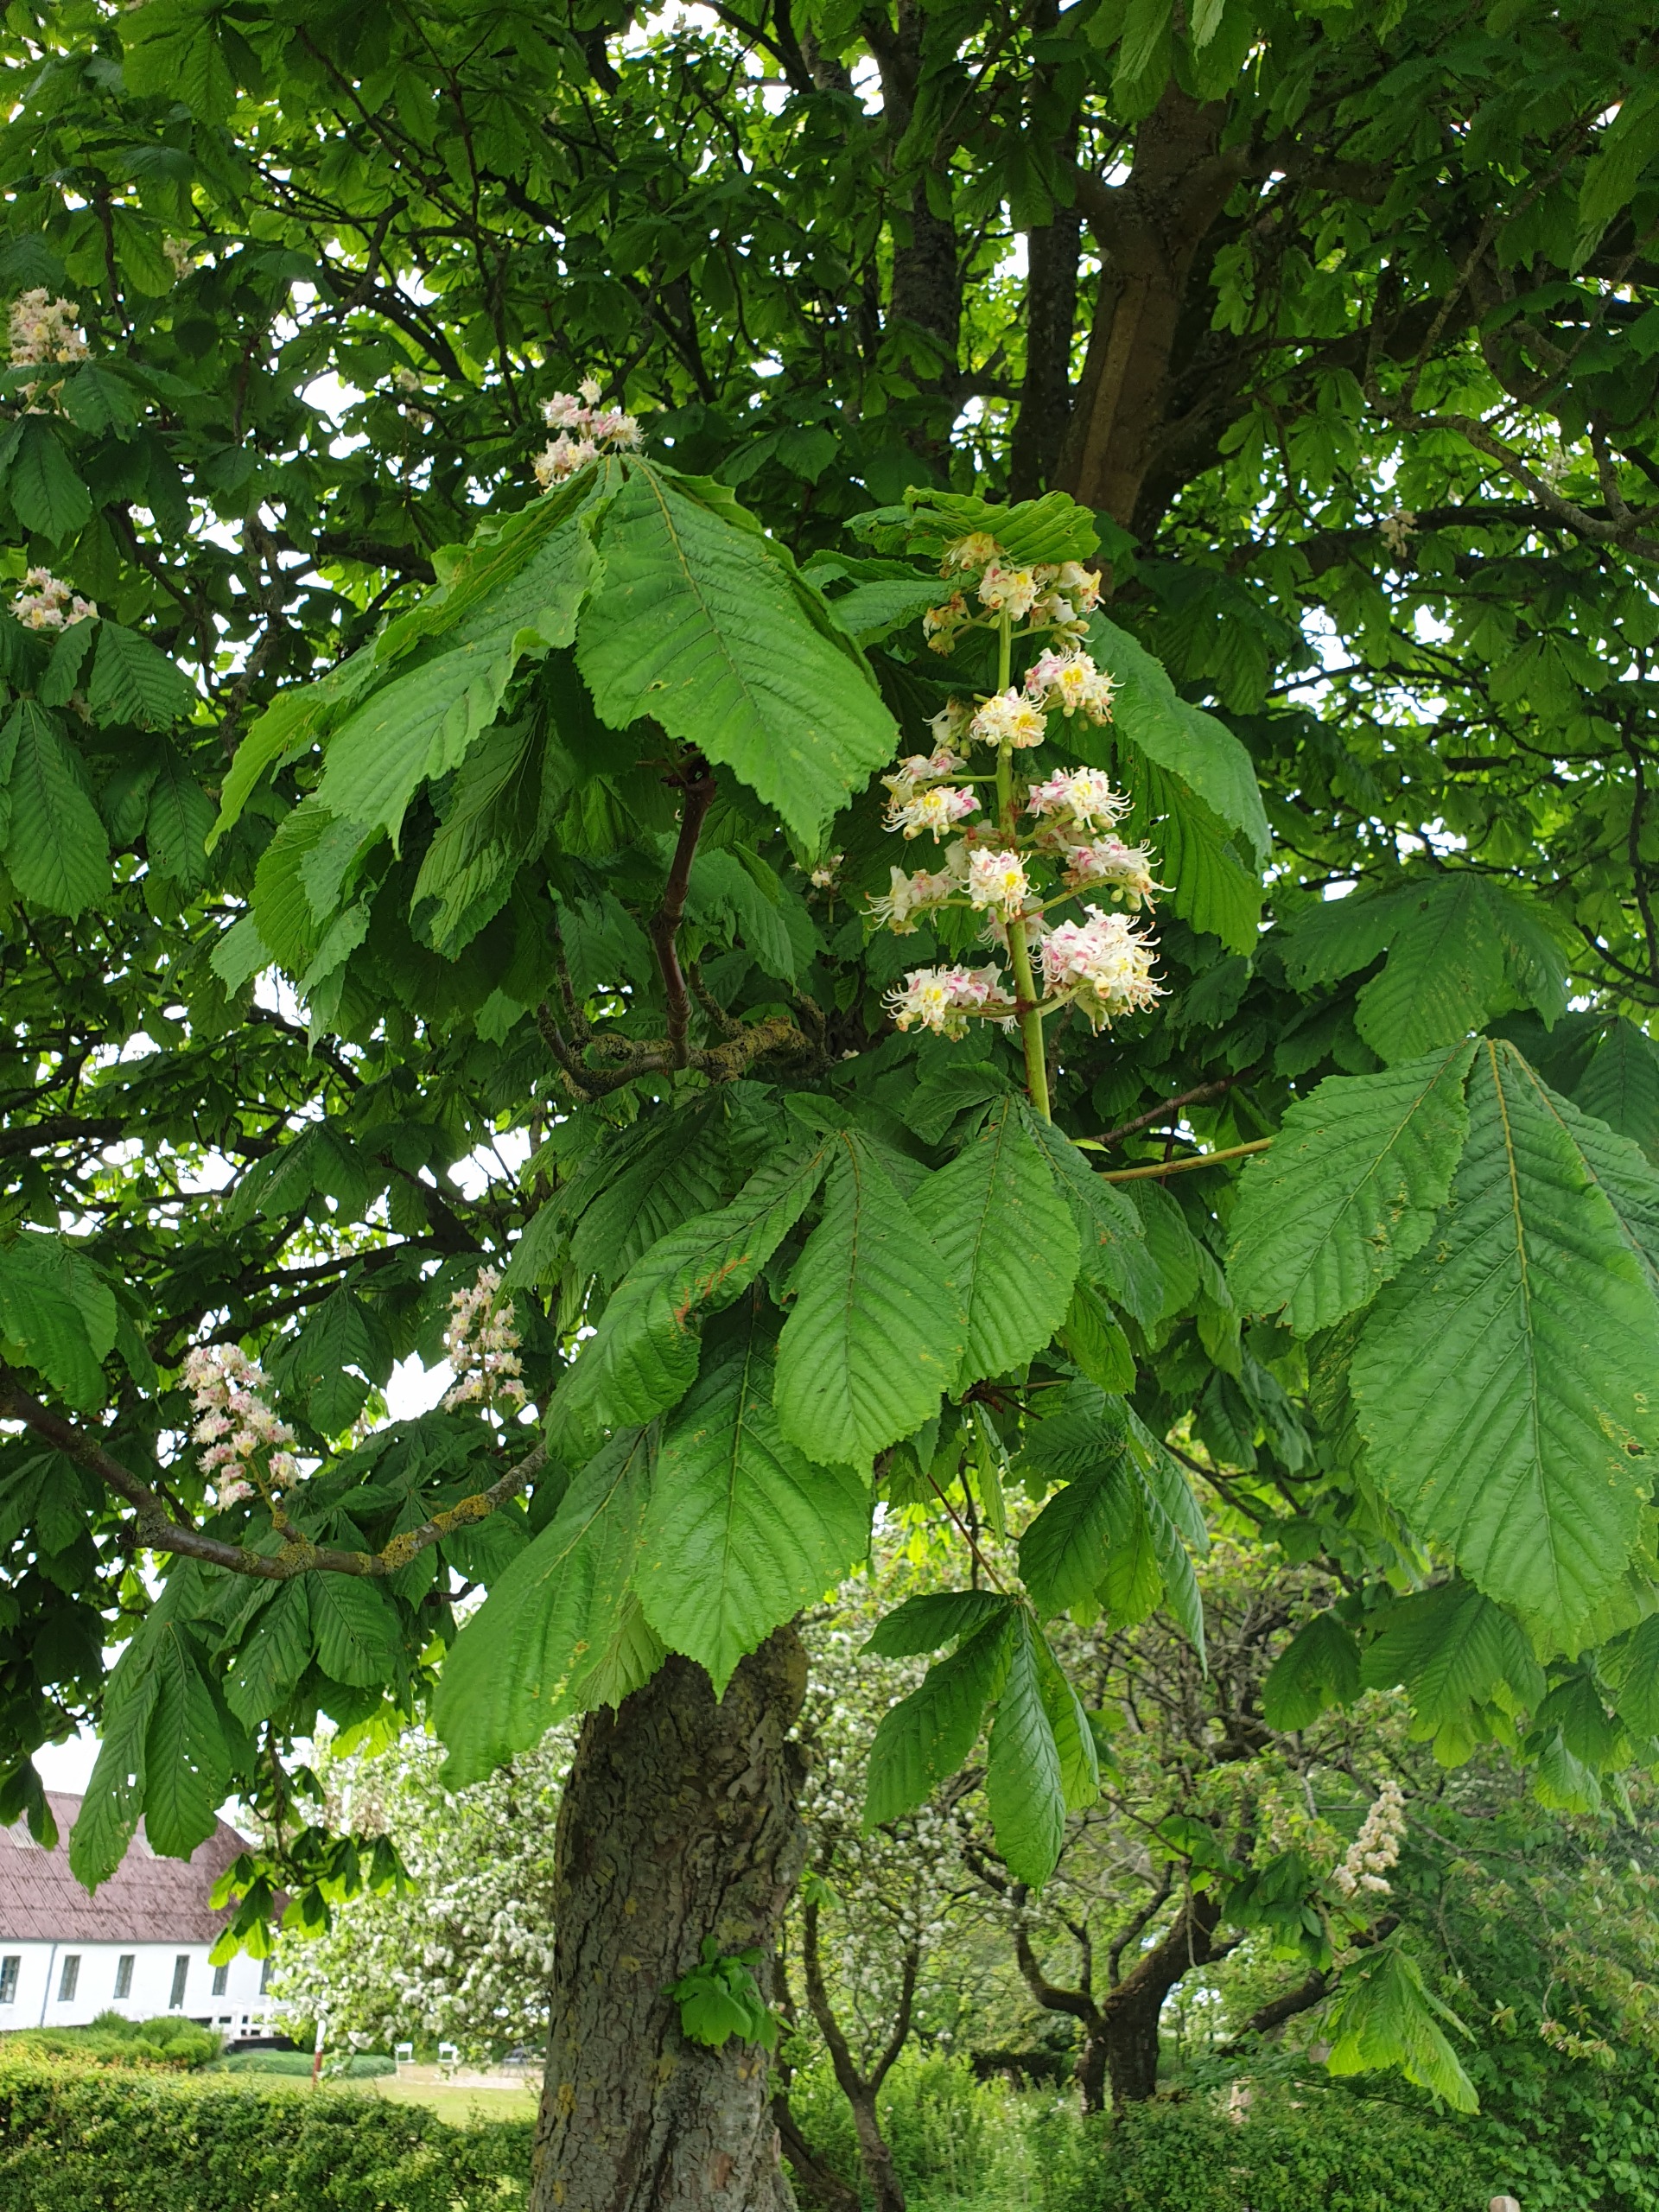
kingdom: Plantae
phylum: Tracheophyta
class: Magnoliopsida
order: Sapindales
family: Sapindaceae
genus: Aesculus
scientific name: Aesculus hippocastanum
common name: Hestekastanie
